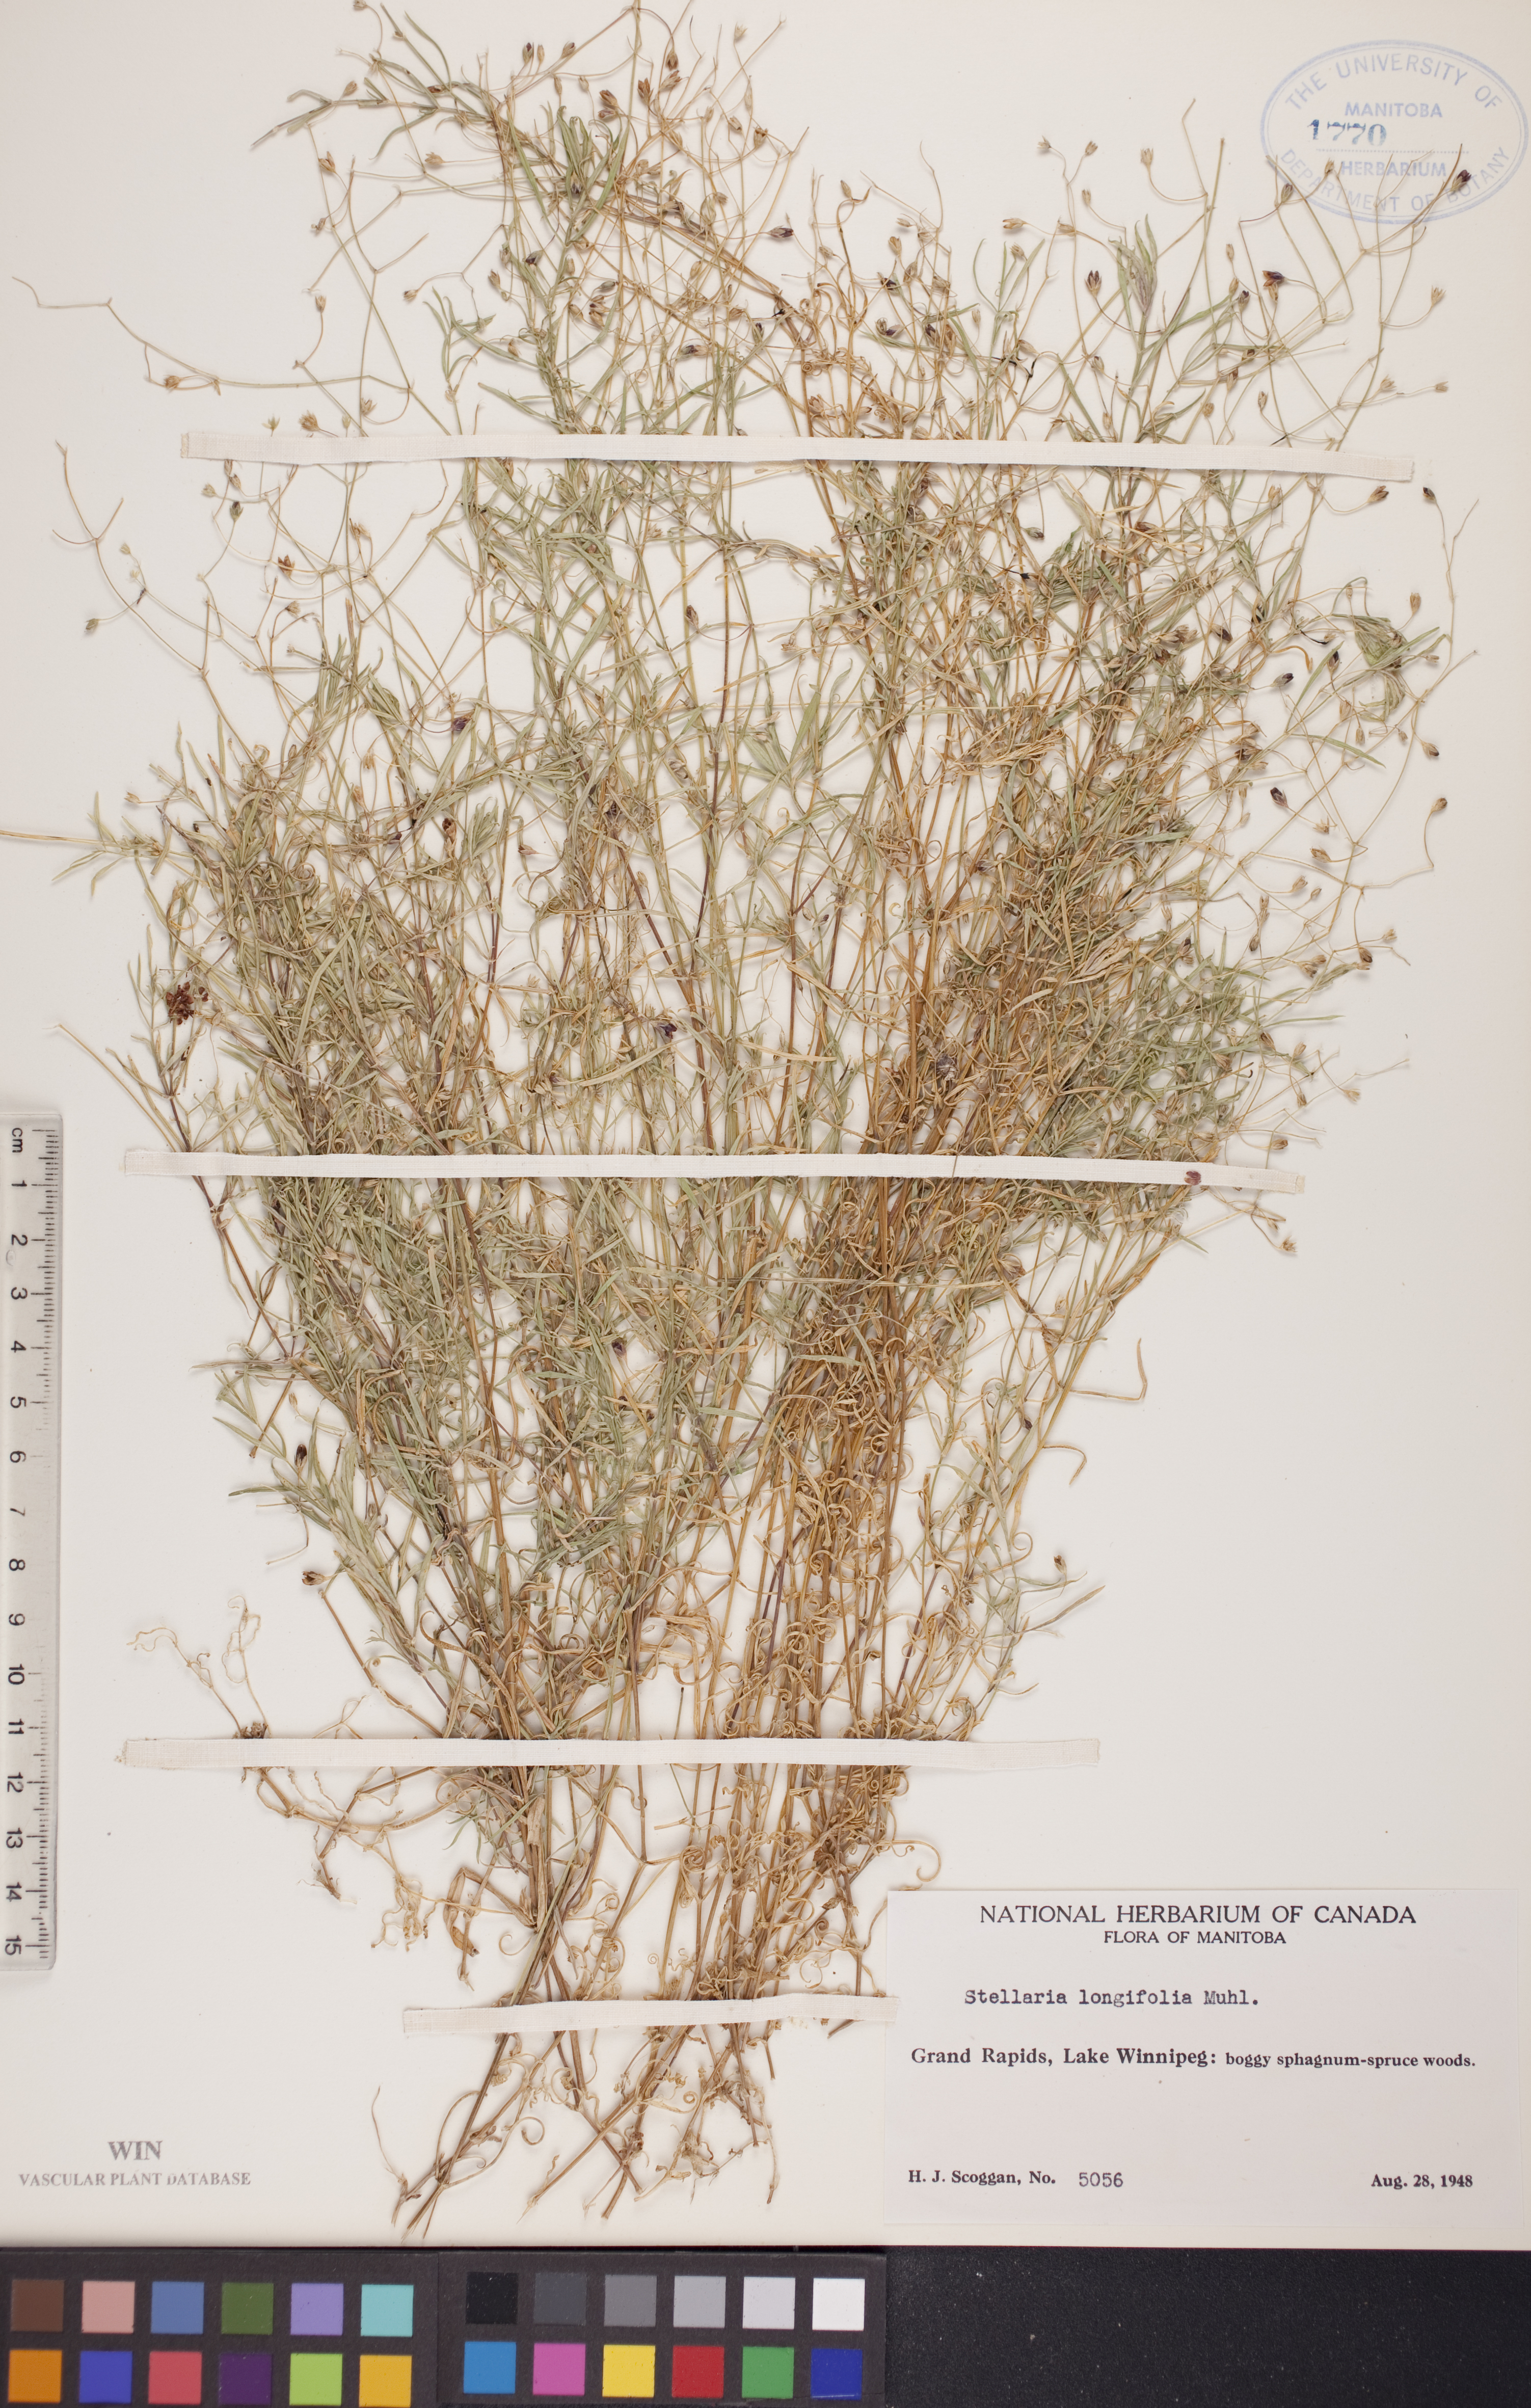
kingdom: Plantae
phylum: Tracheophyta
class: Magnoliopsida
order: Caryophyllales
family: Caryophyllaceae
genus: Stellaria
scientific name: Stellaria longifolia
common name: Long-leaved chickweed
